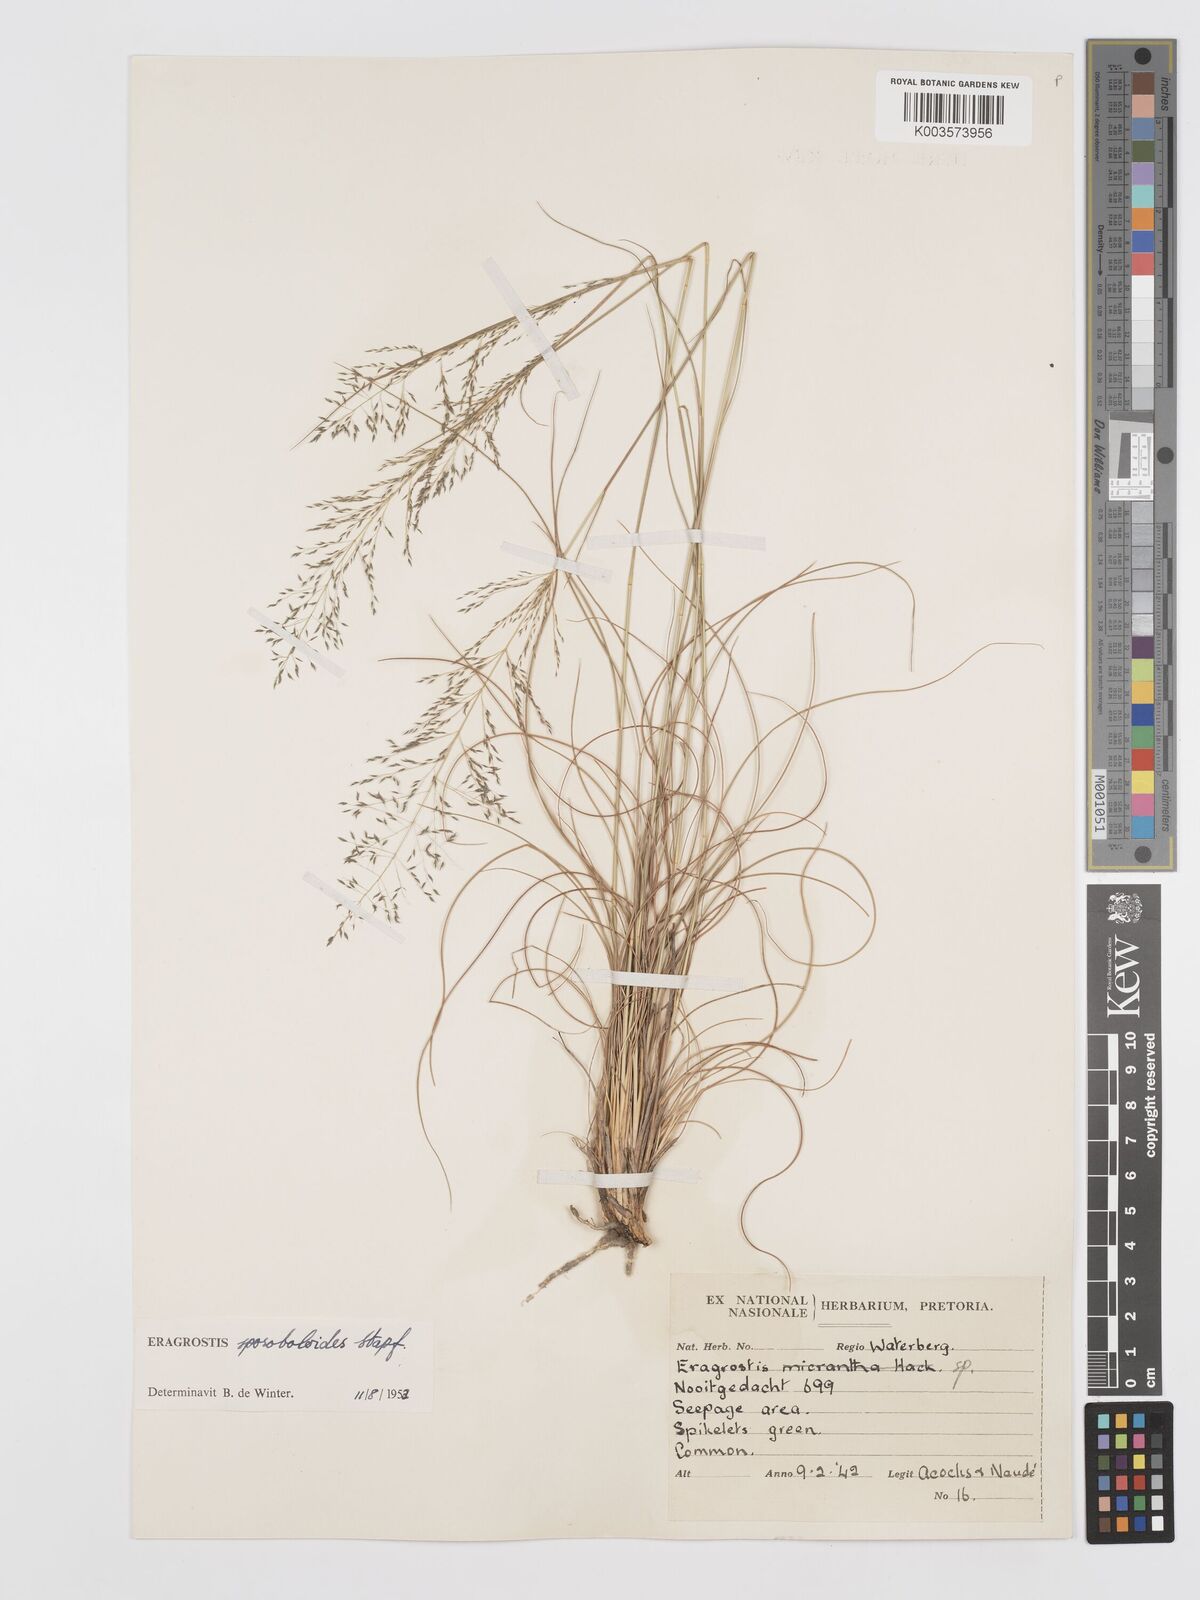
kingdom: Plantae
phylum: Tracheophyta
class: Liliopsida
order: Poales
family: Poaceae
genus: Eragrostis
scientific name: Eragrostis stapfii
